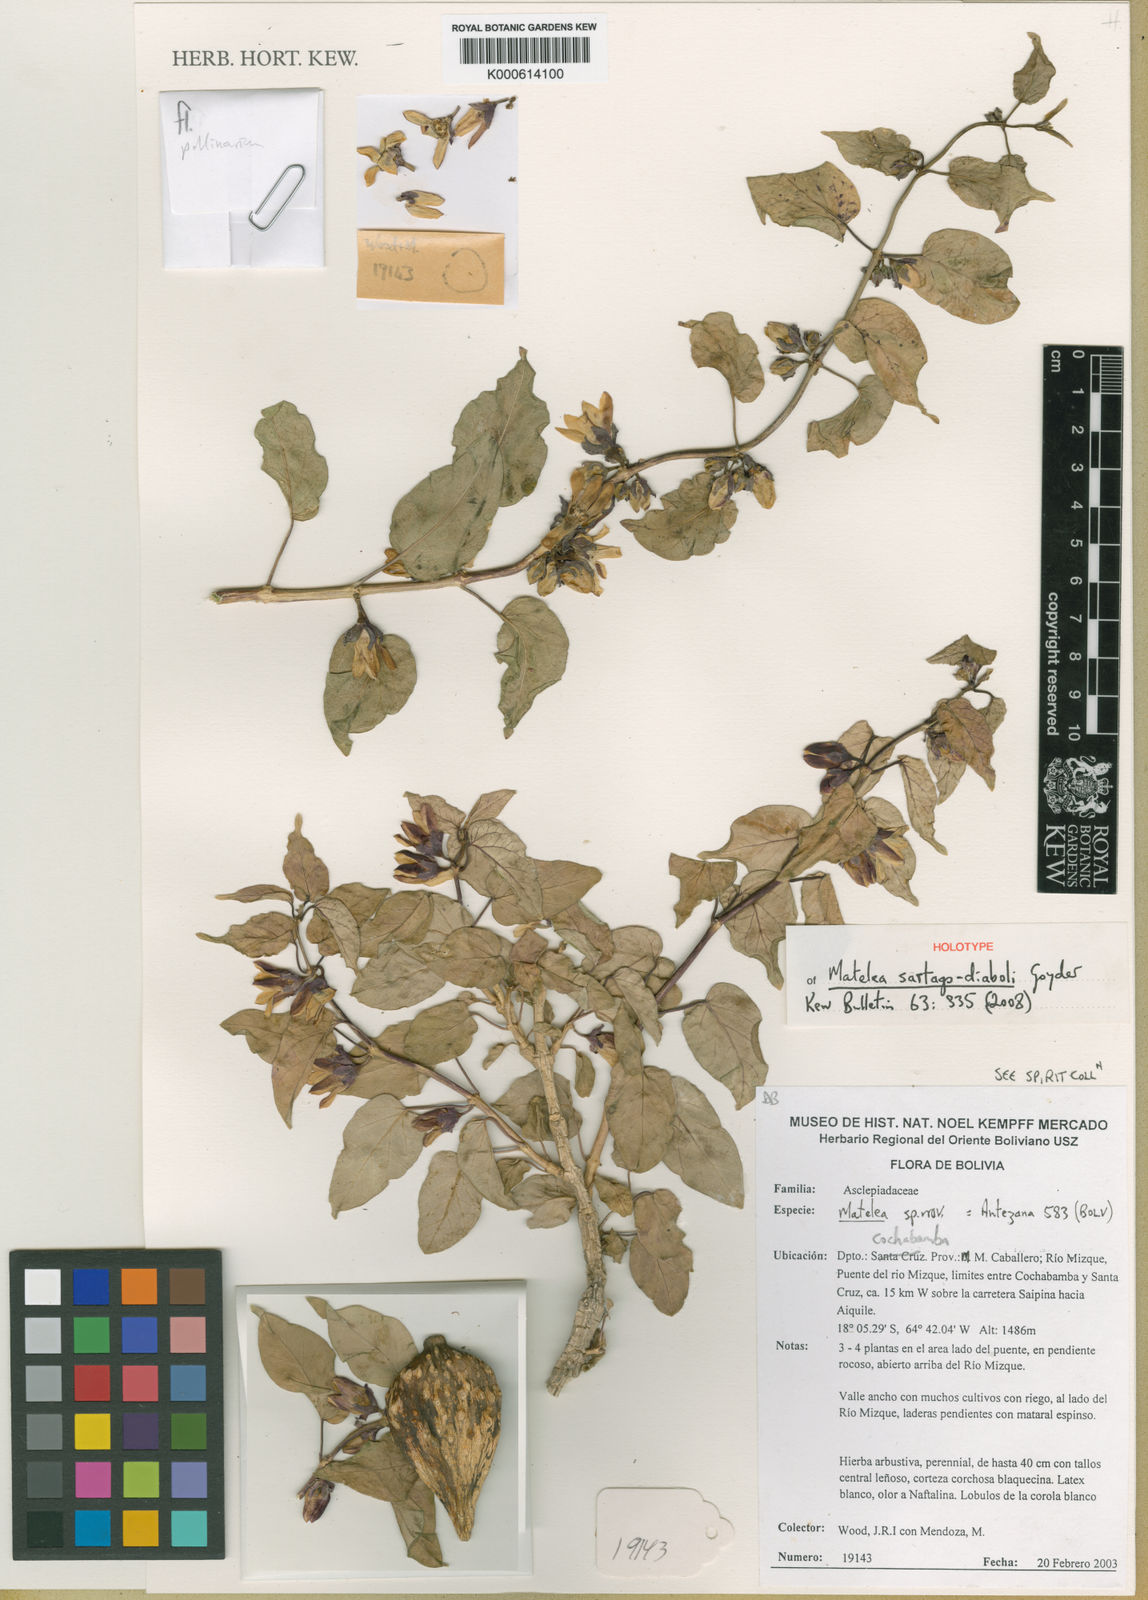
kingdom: Plantae
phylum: Tracheophyta
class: Magnoliopsida
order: Gentianales
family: Apocynaceae
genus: Ibatia
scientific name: Ibatia
